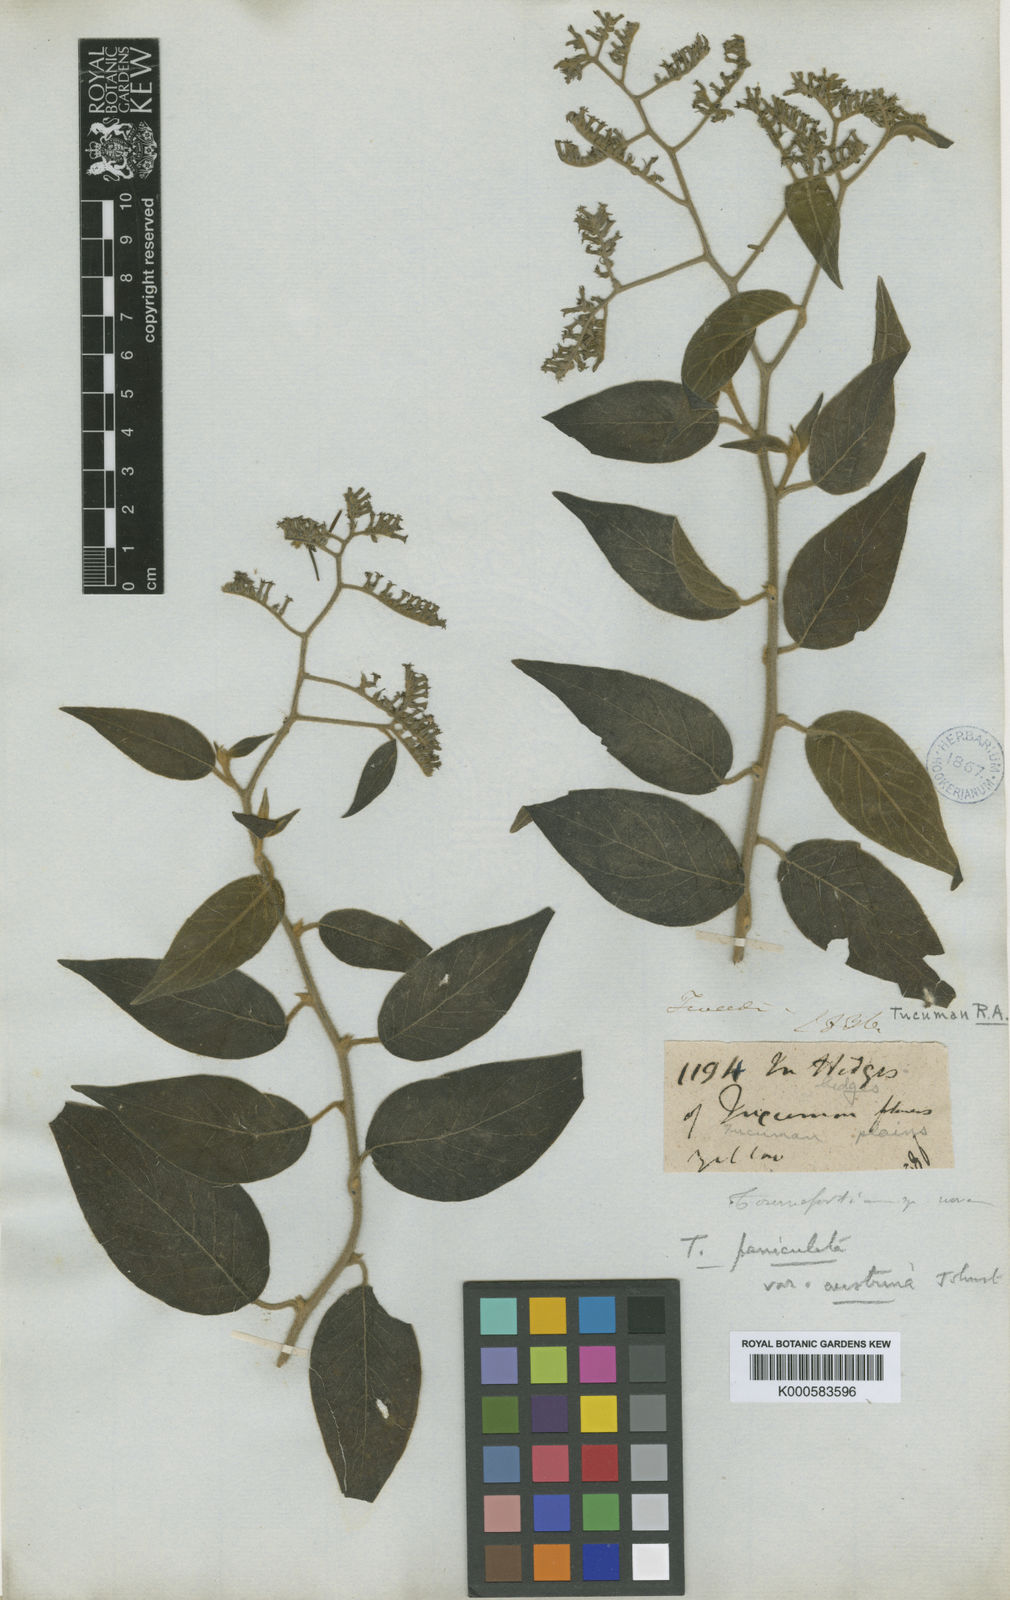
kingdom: Plantae
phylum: Tracheophyta
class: Magnoliopsida
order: Boraginales
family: Heliotropiaceae
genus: Myriopus
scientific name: Myriopus
